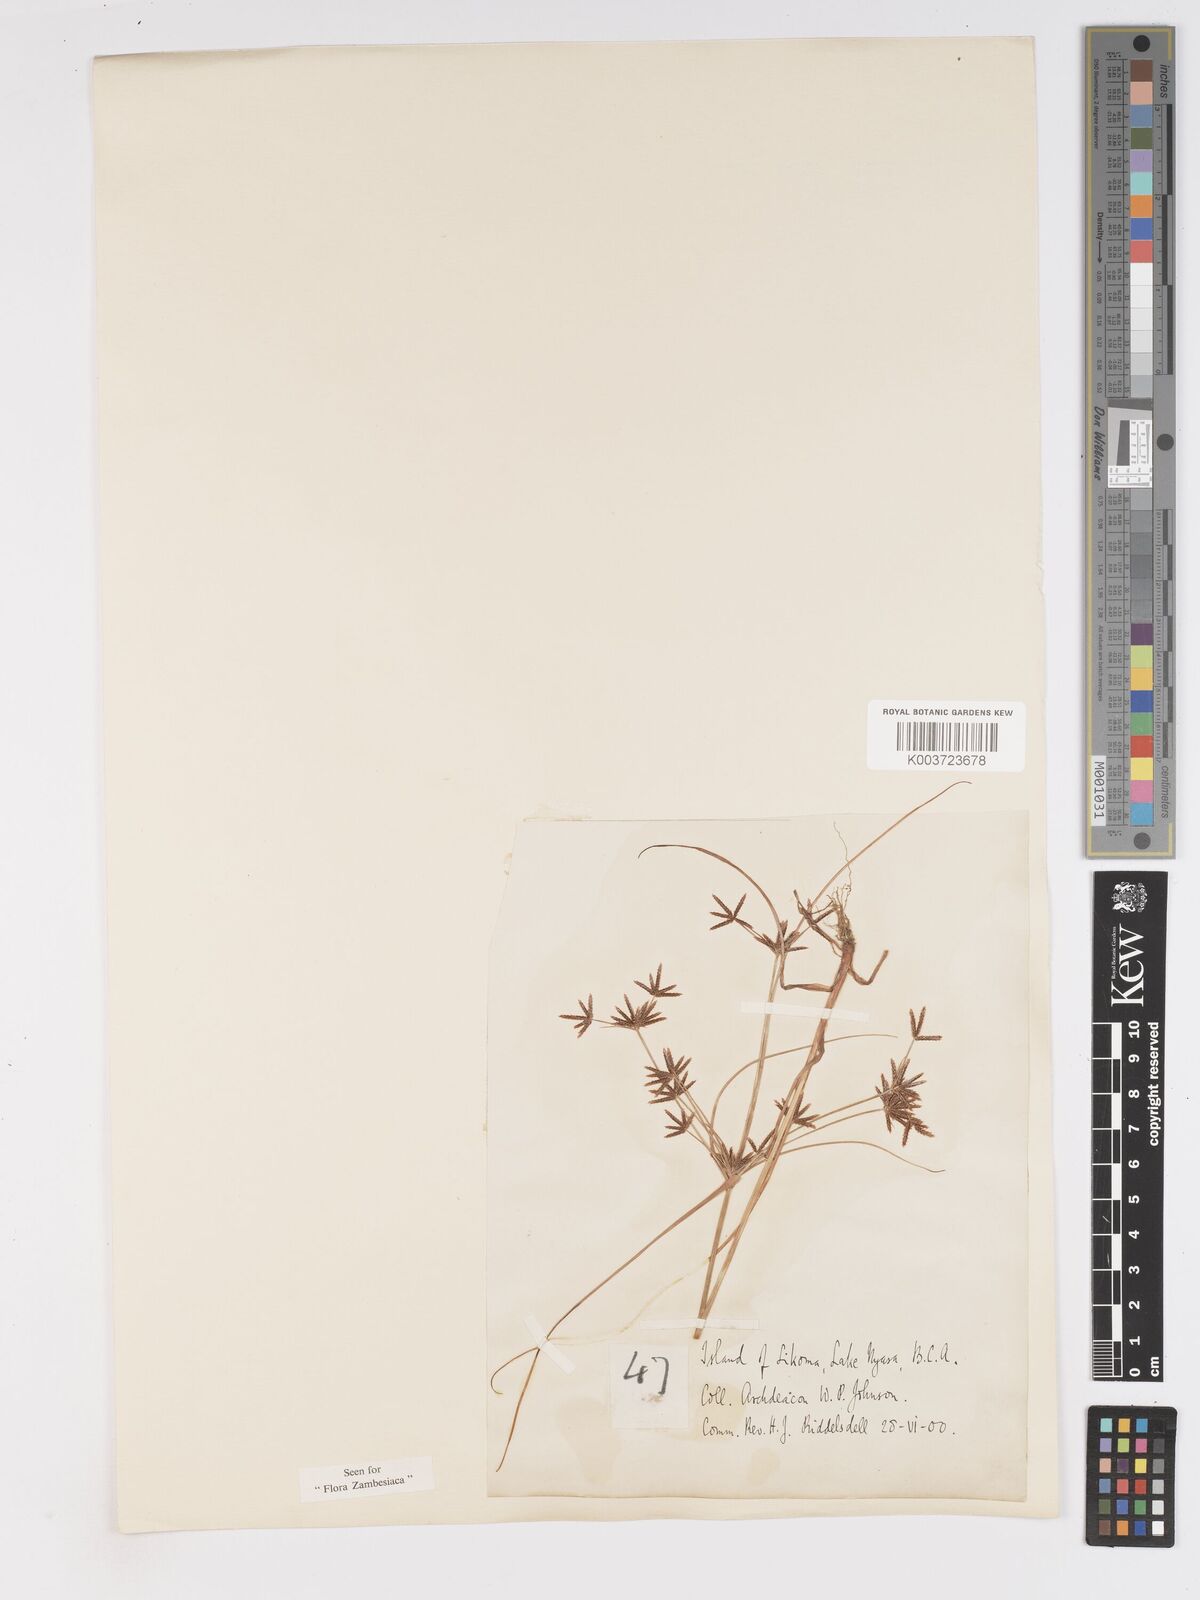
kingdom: Plantae
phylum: Tracheophyta
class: Liliopsida
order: Poales
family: Cyperaceae
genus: Cyperus
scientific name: Cyperus amabilis
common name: Foothill flat sedge
